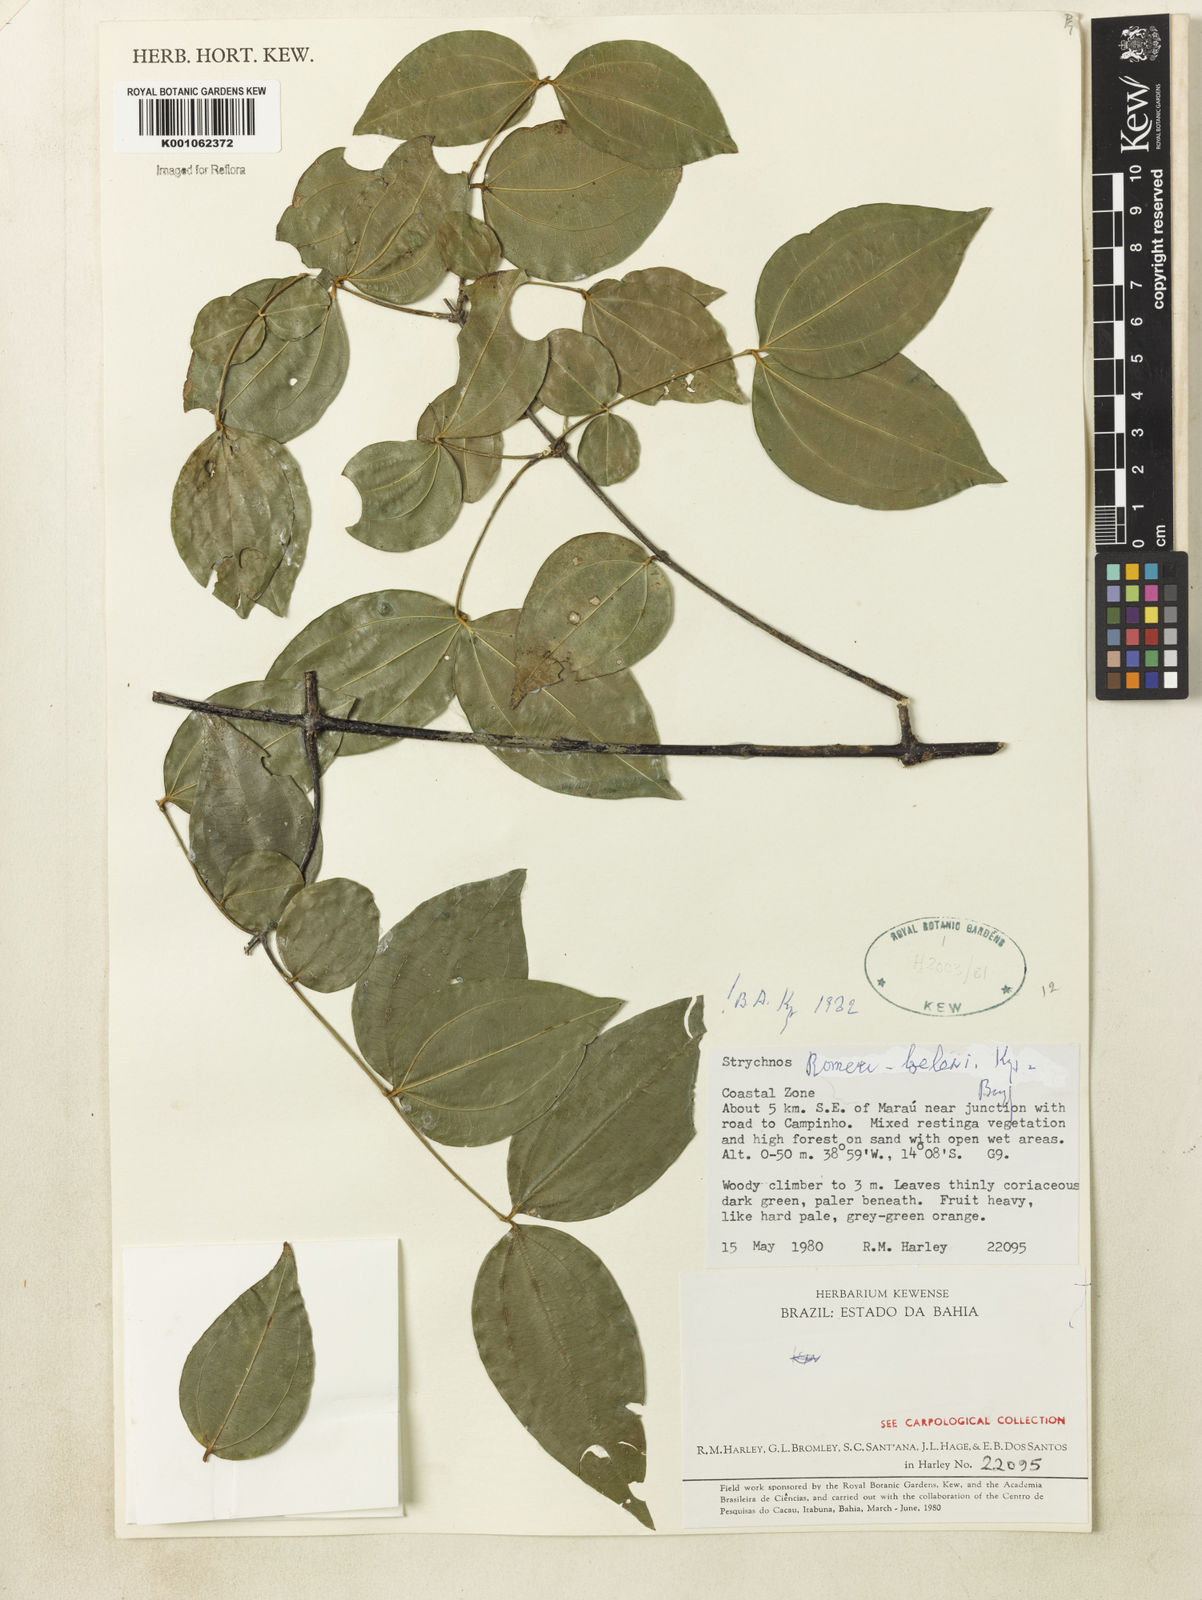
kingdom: Plantae
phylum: Tracheophyta
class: Magnoliopsida
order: Gentianales
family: Loganiaceae
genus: Strychnos
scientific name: Strychnos romeu-belenii
